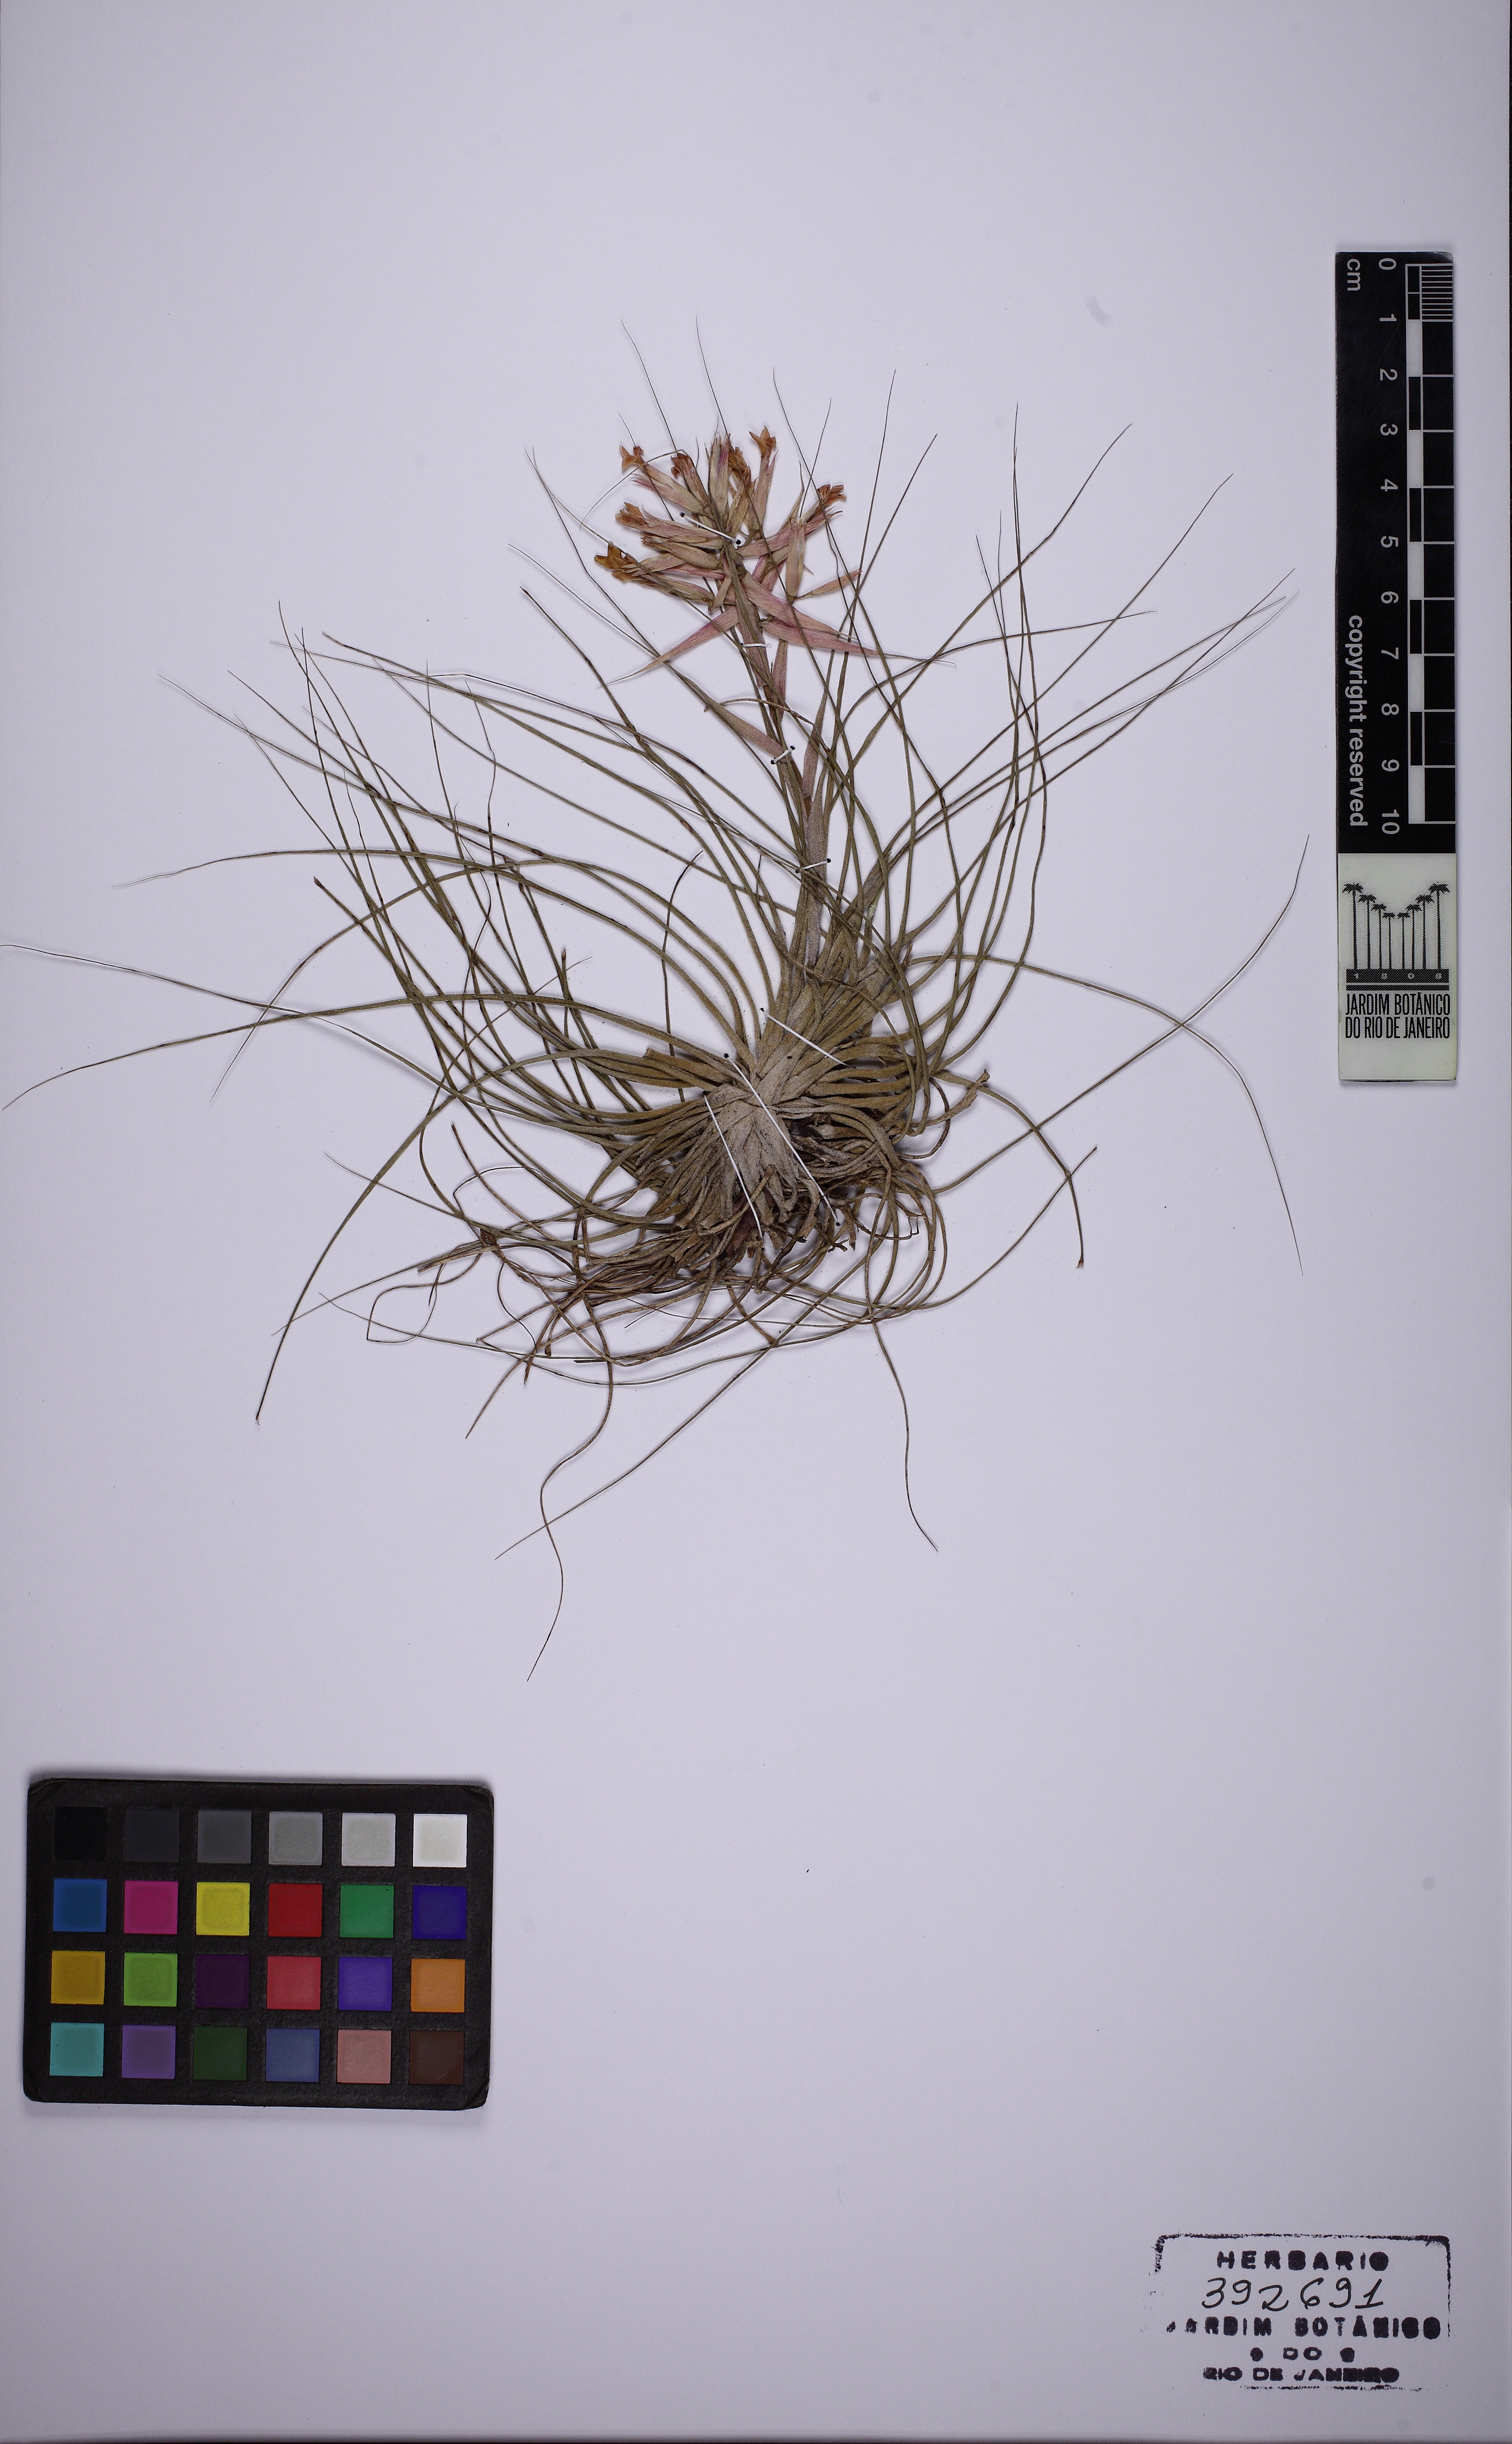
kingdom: Plantae
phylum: Tracheophyta
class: Liliopsida
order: Poales
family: Bromeliaceae
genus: Tillandsia
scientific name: Tillandsia globosa
